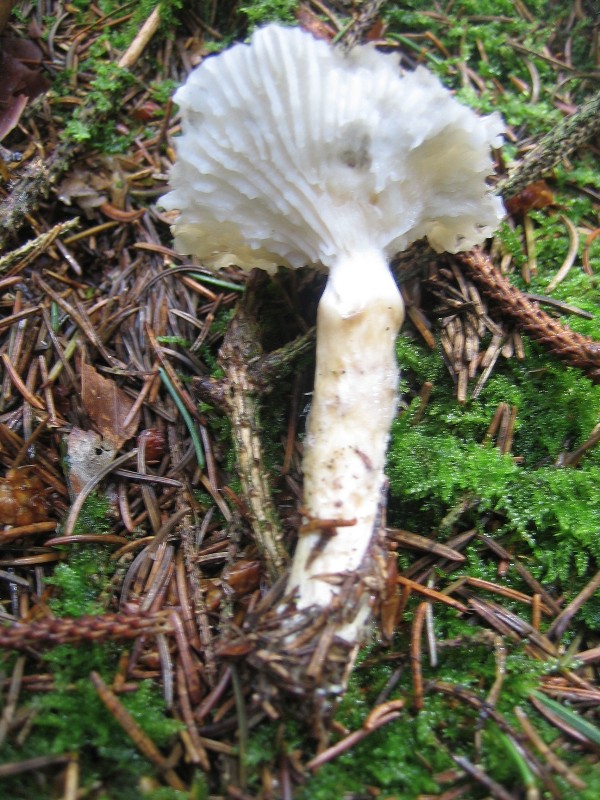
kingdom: Fungi
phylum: Basidiomycota
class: Agaricomycetes
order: Agaricales
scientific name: Agaricales
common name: champignonordenen
